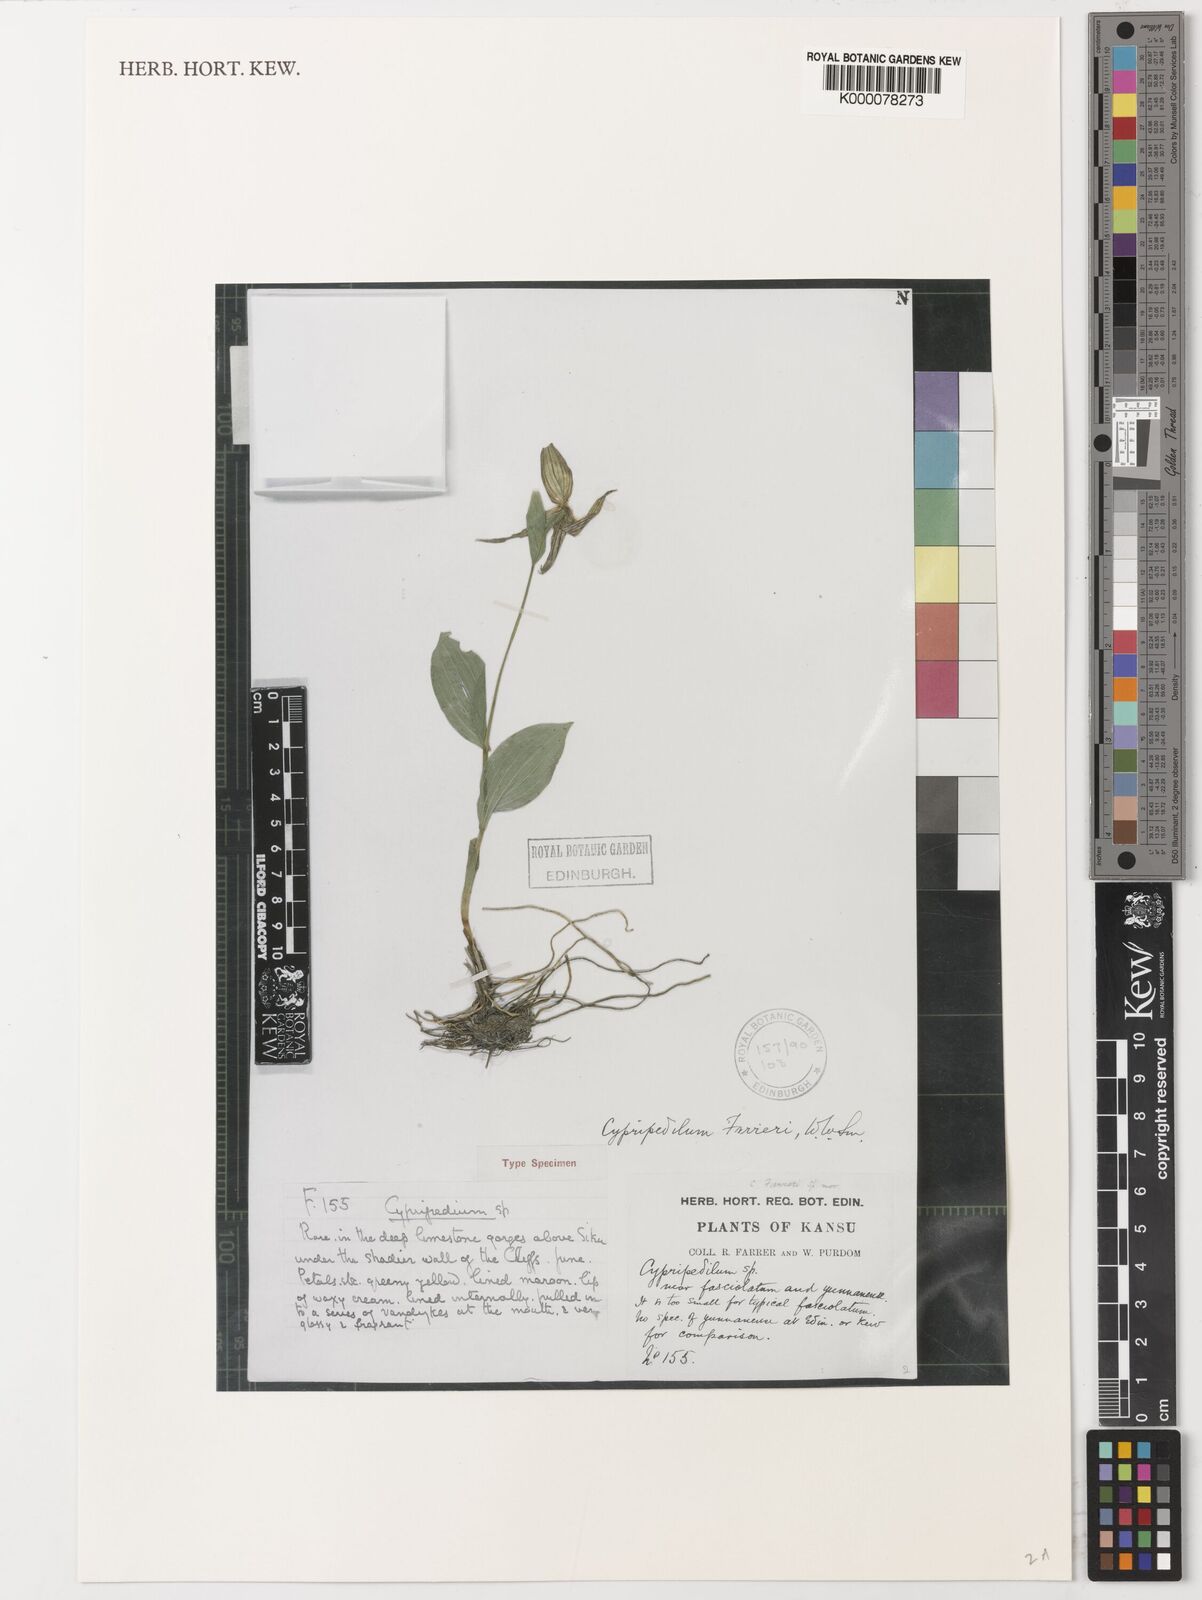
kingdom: Plantae
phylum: Tracheophyta
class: Liliopsida
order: Asparagales
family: Orchidaceae
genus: Cypripedium
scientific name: Cypripedium farreri
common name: Farrer's cypripedium
